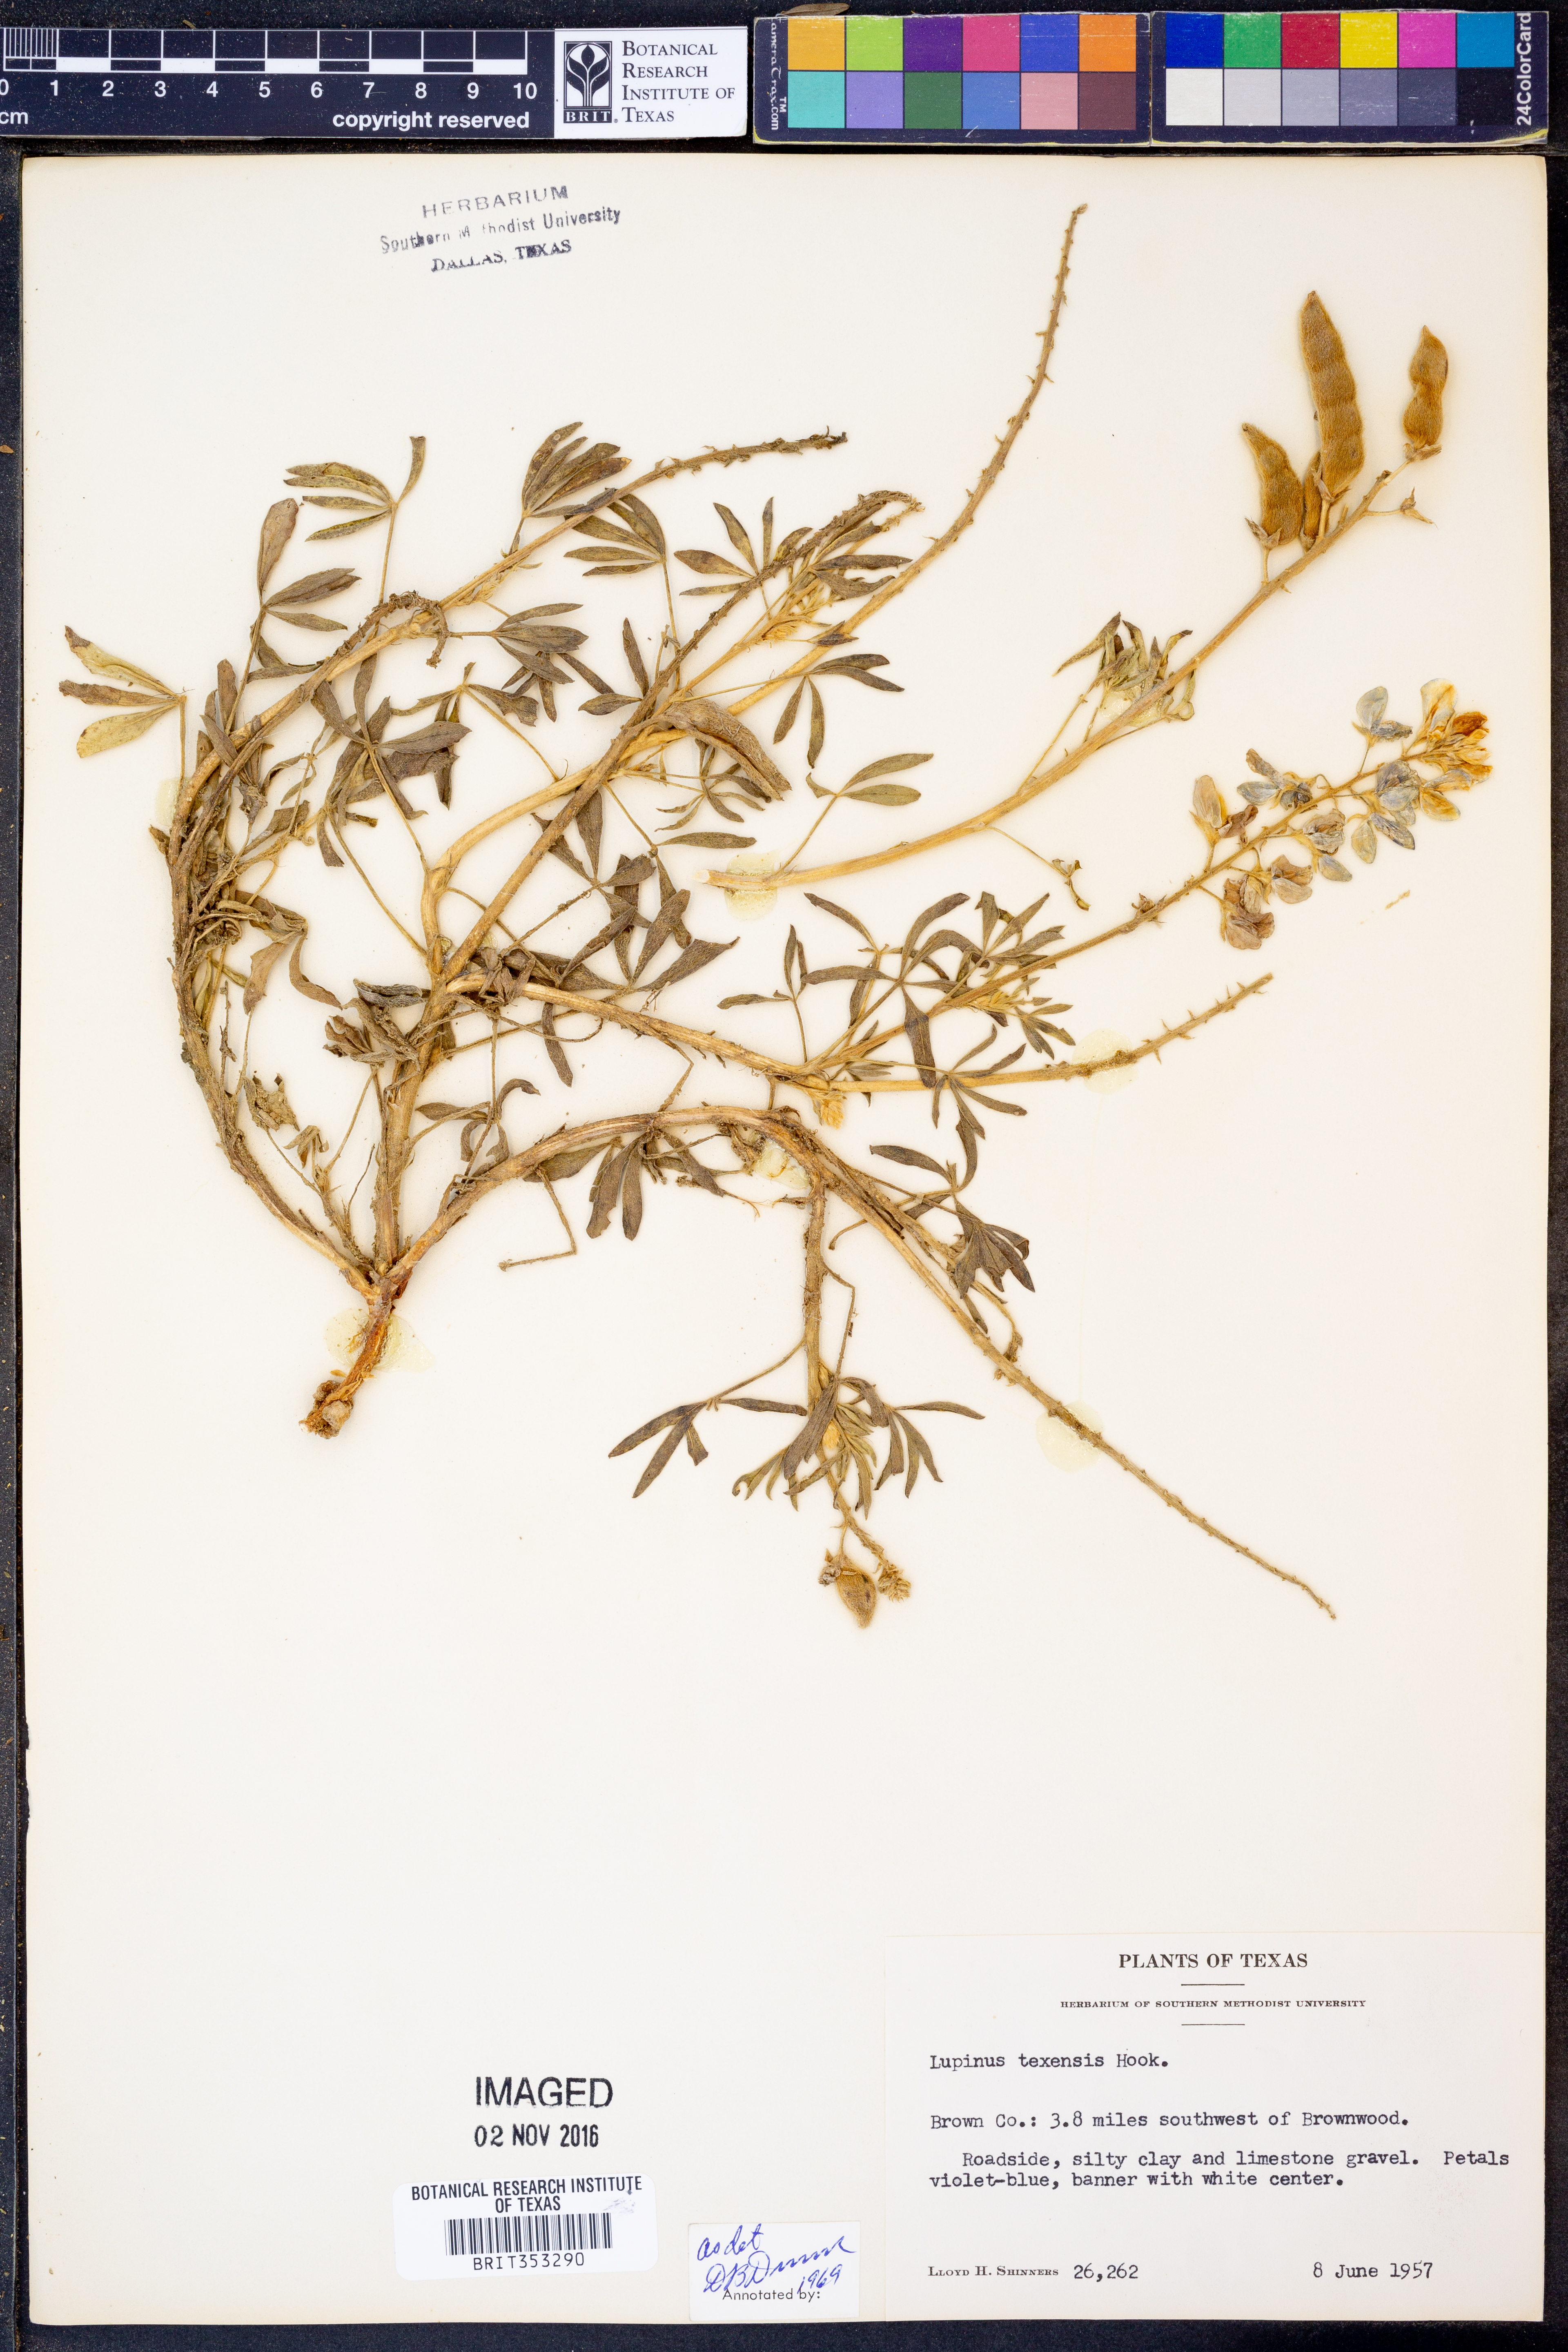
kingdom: Plantae
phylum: Tracheophyta
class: Magnoliopsida
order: Fabales
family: Fabaceae
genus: Lupinus
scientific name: Lupinus texensis
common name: Texas bluebonnet
